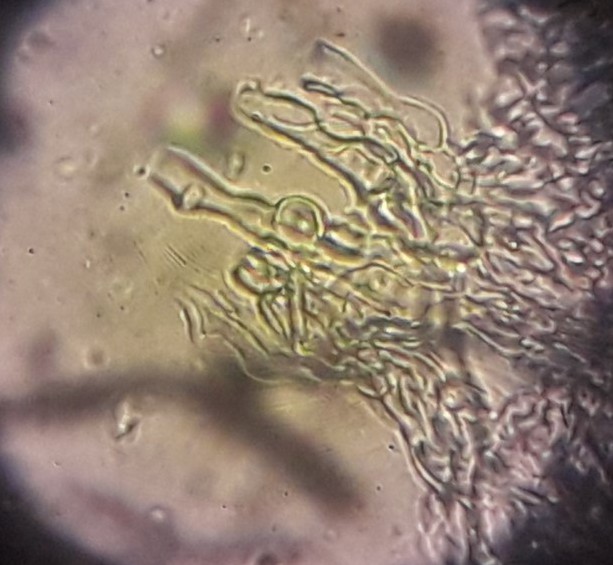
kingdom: Fungi
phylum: Basidiomycota
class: Agaricomycetes
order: Russulales
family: Peniophoraceae
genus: Peniophora
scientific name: Peniophora laeta
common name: tandet voksskind
